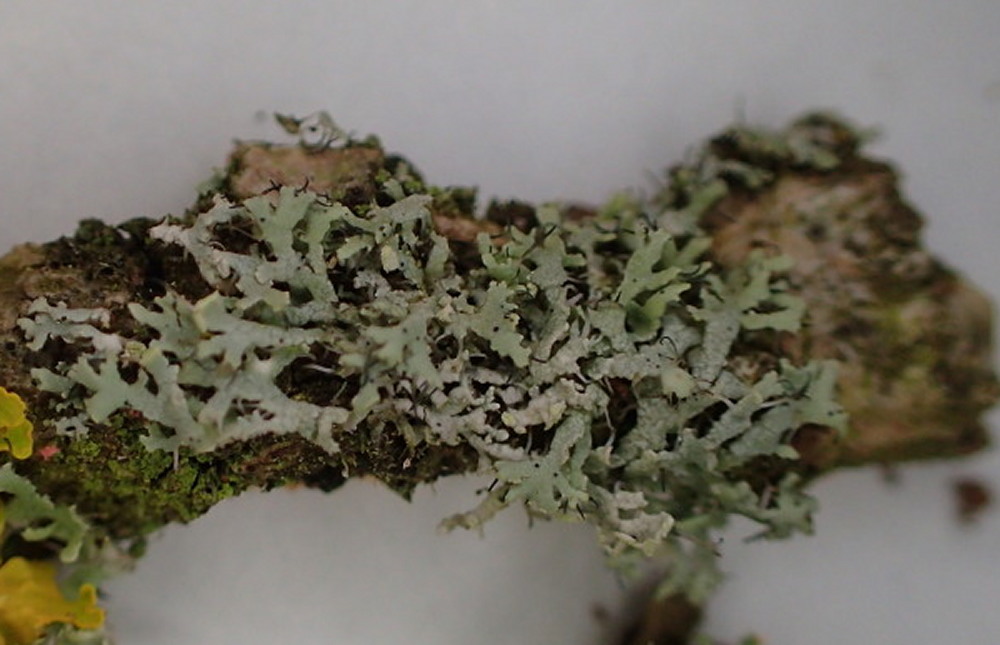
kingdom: Fungi
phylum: Ascomycota
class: Lecanoromycetes
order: Caliciales
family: Physciaceae
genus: Physcia
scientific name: Physcia tenella
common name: spæd rosetlav
